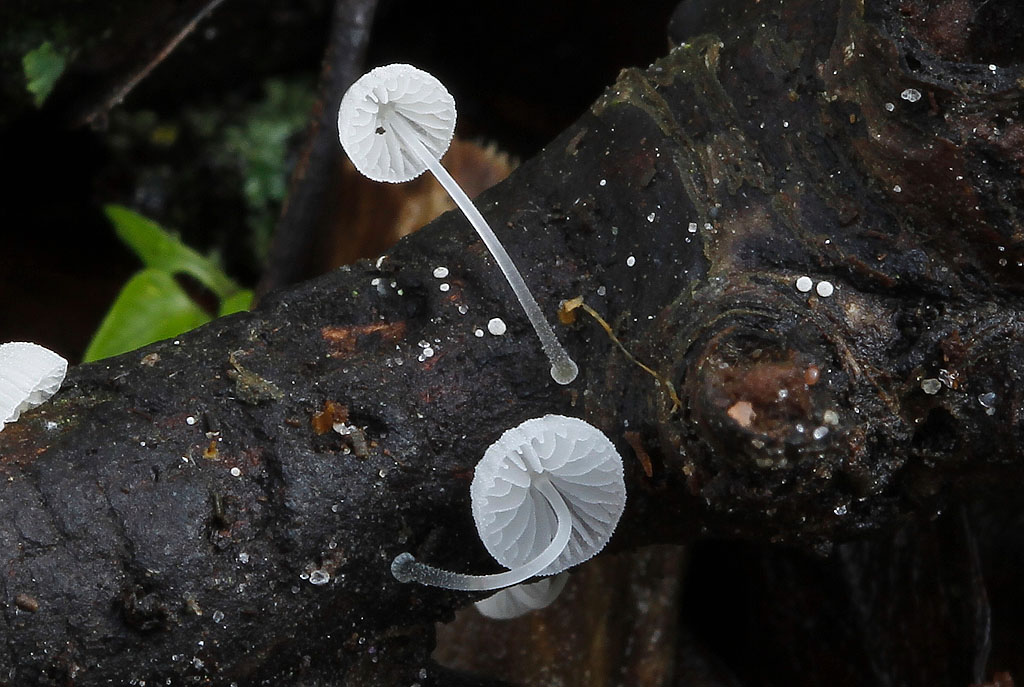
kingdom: Fungi
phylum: Basidiomycota
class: Agaricomycetes
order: Agaricales
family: Mycenaceae
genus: Mycena
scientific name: Mycena tenerrima
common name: pudret huesvamp
